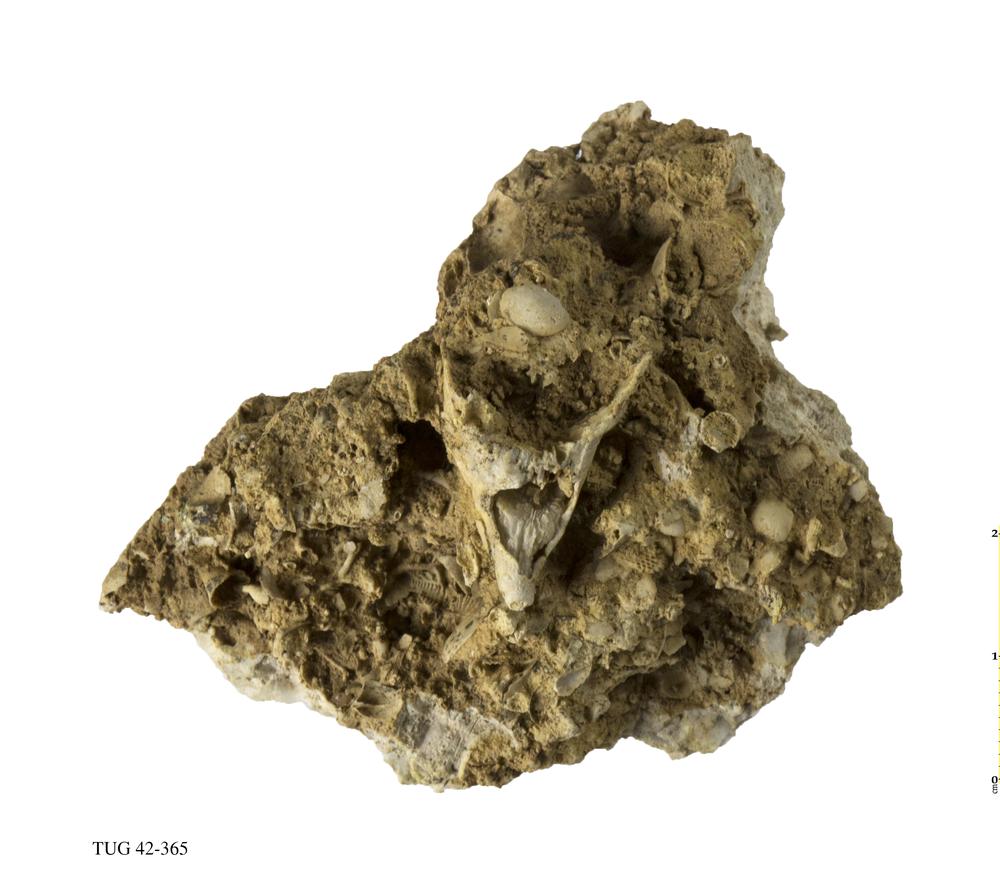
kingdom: Animalia
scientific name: Animalia
